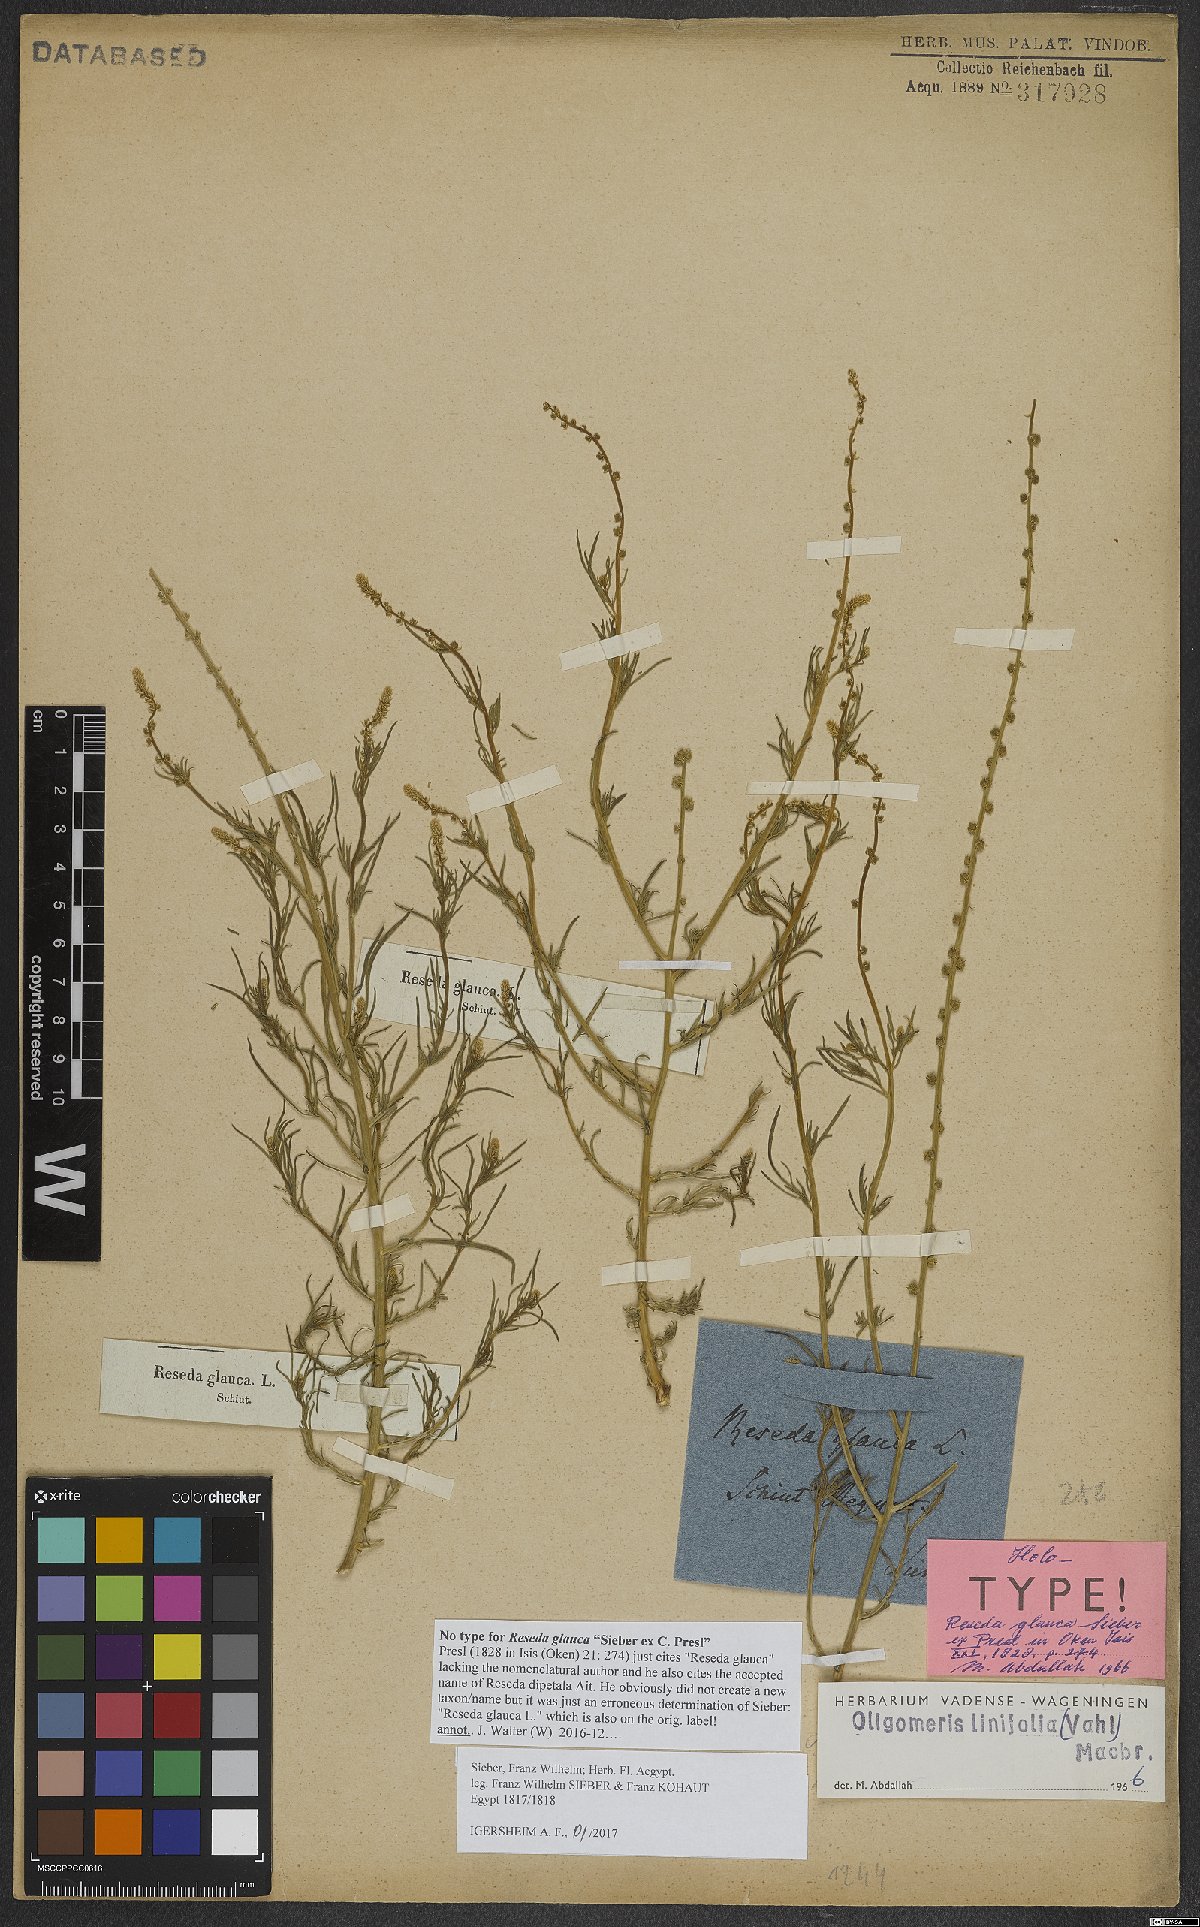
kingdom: Plantae
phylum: Tracheophyta
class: Magnoliopsida
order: Brassicales
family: Resedaceae
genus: Oligomeris
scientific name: Oligomeris linifolia
